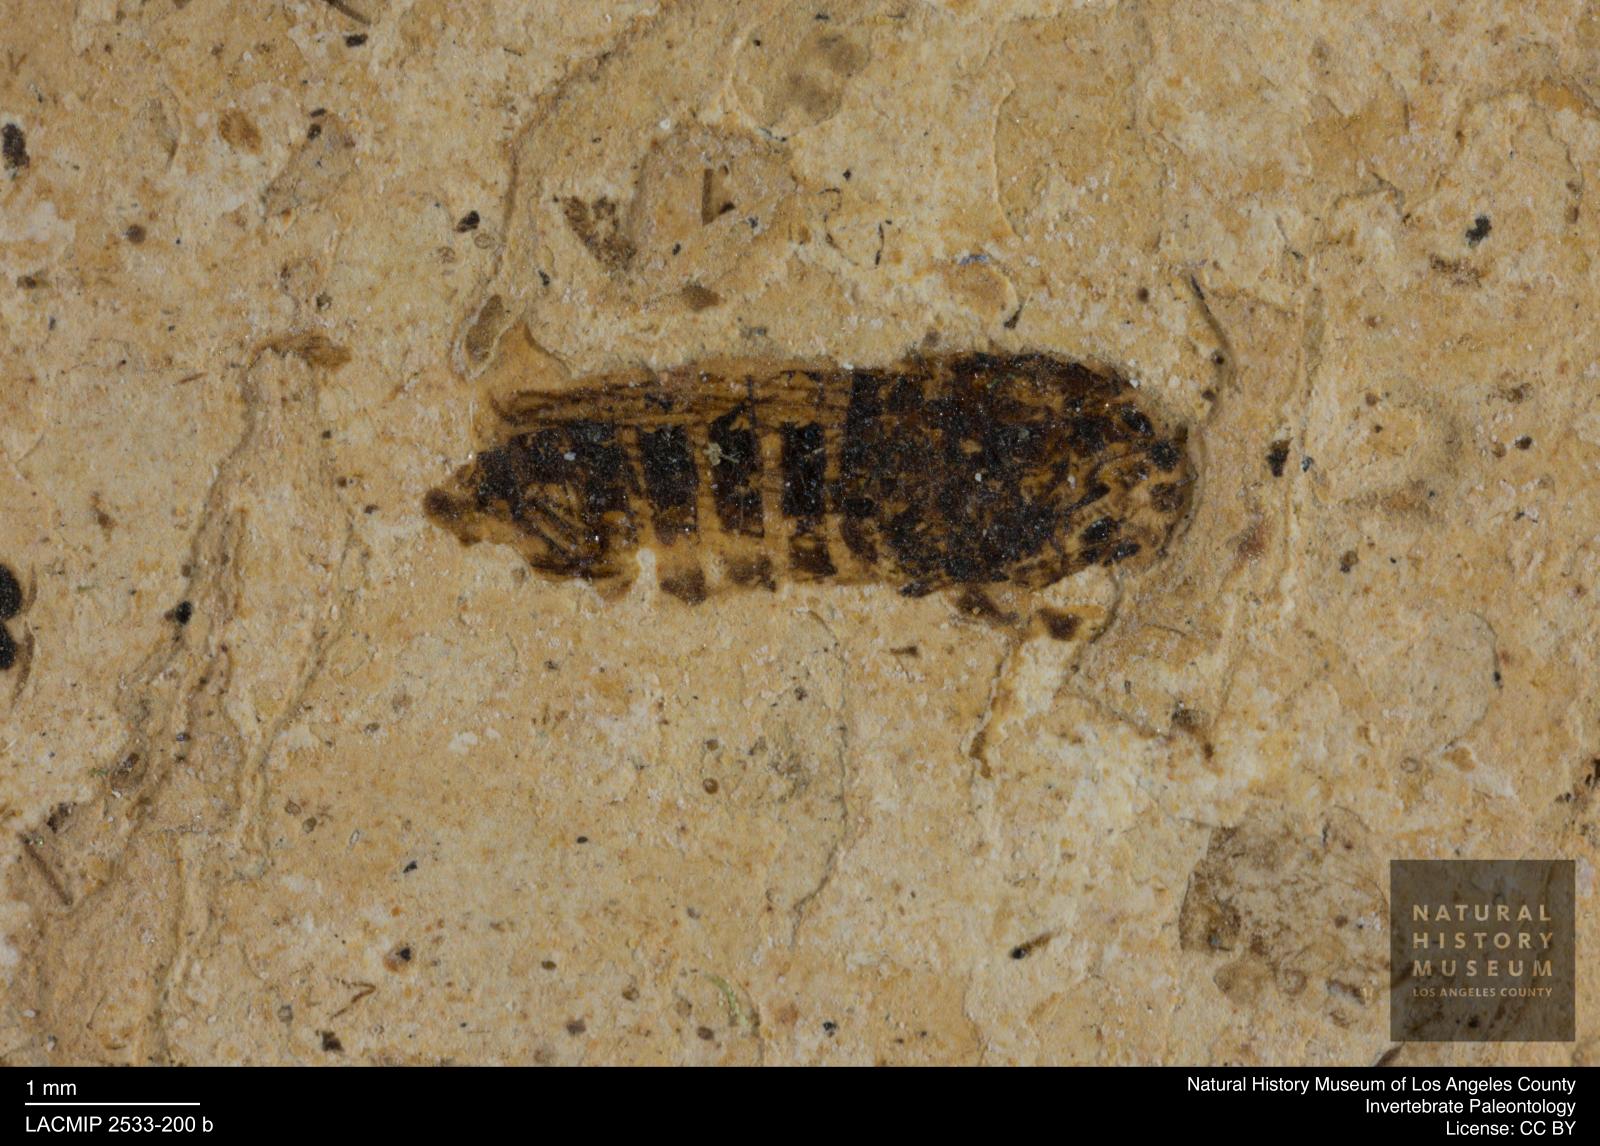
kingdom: Animalia
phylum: Arthropoda
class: Insecta
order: Hemiptera
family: Cicadellidae
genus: Thamnotettix
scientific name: Thamnotettix gracilentus
